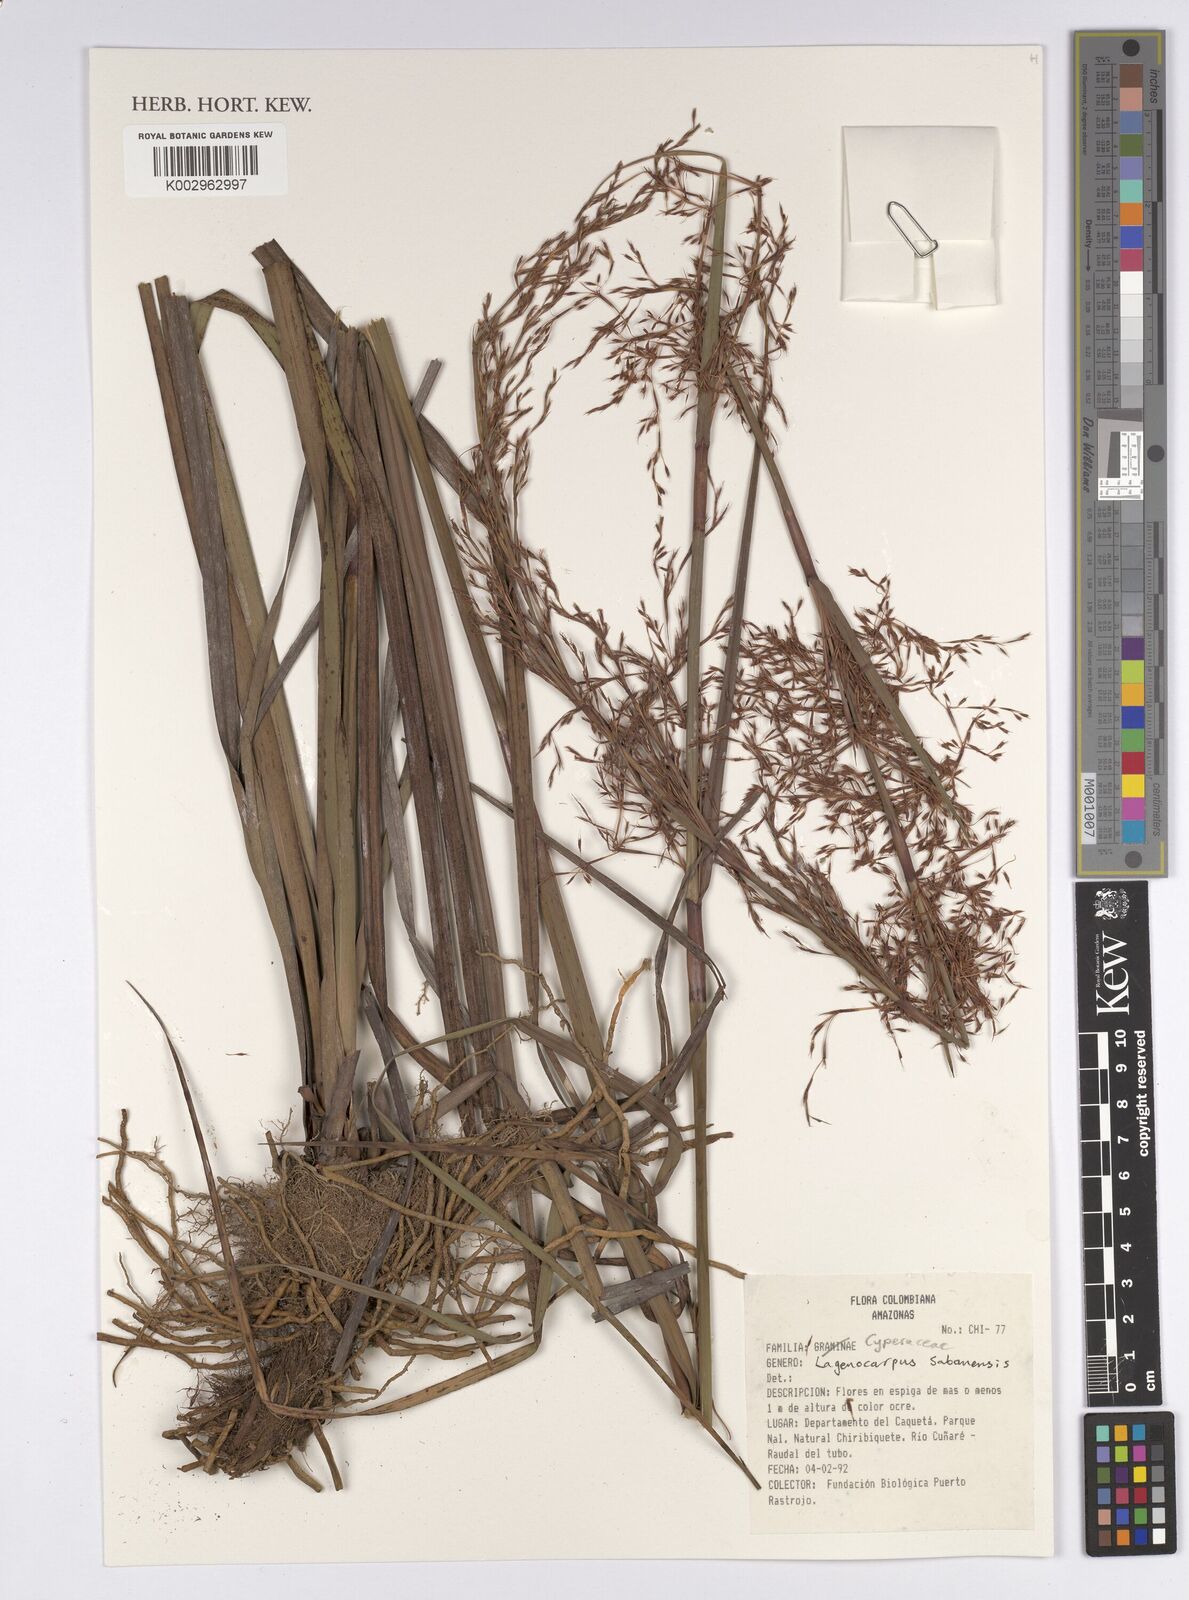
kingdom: Plantae
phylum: Tracheophyta
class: Liliopsida
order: Poales
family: Cyperaceae
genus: Lagenocarpus
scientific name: Lagenocarpus sabanensis
